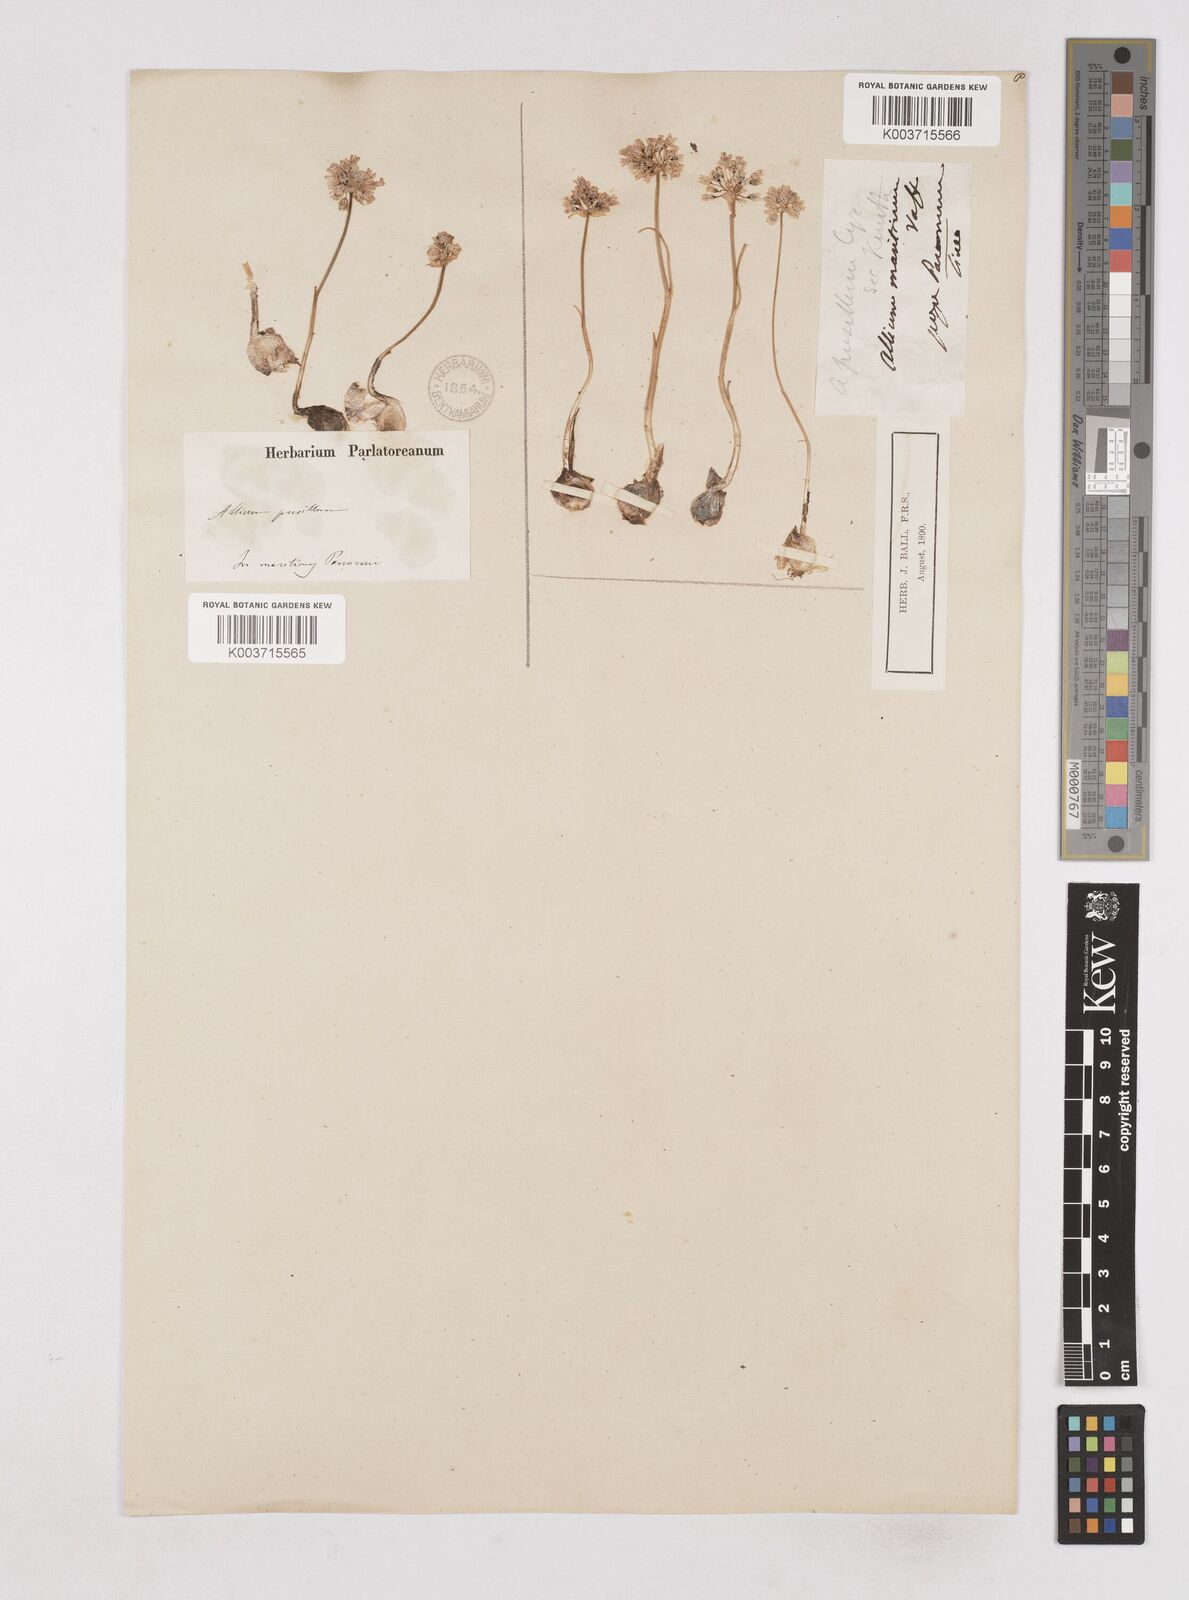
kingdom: Plantae
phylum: Tracheophyta
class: Liliopsida
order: Asparagales
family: Amaryllidaceae
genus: Allium
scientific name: Allium
